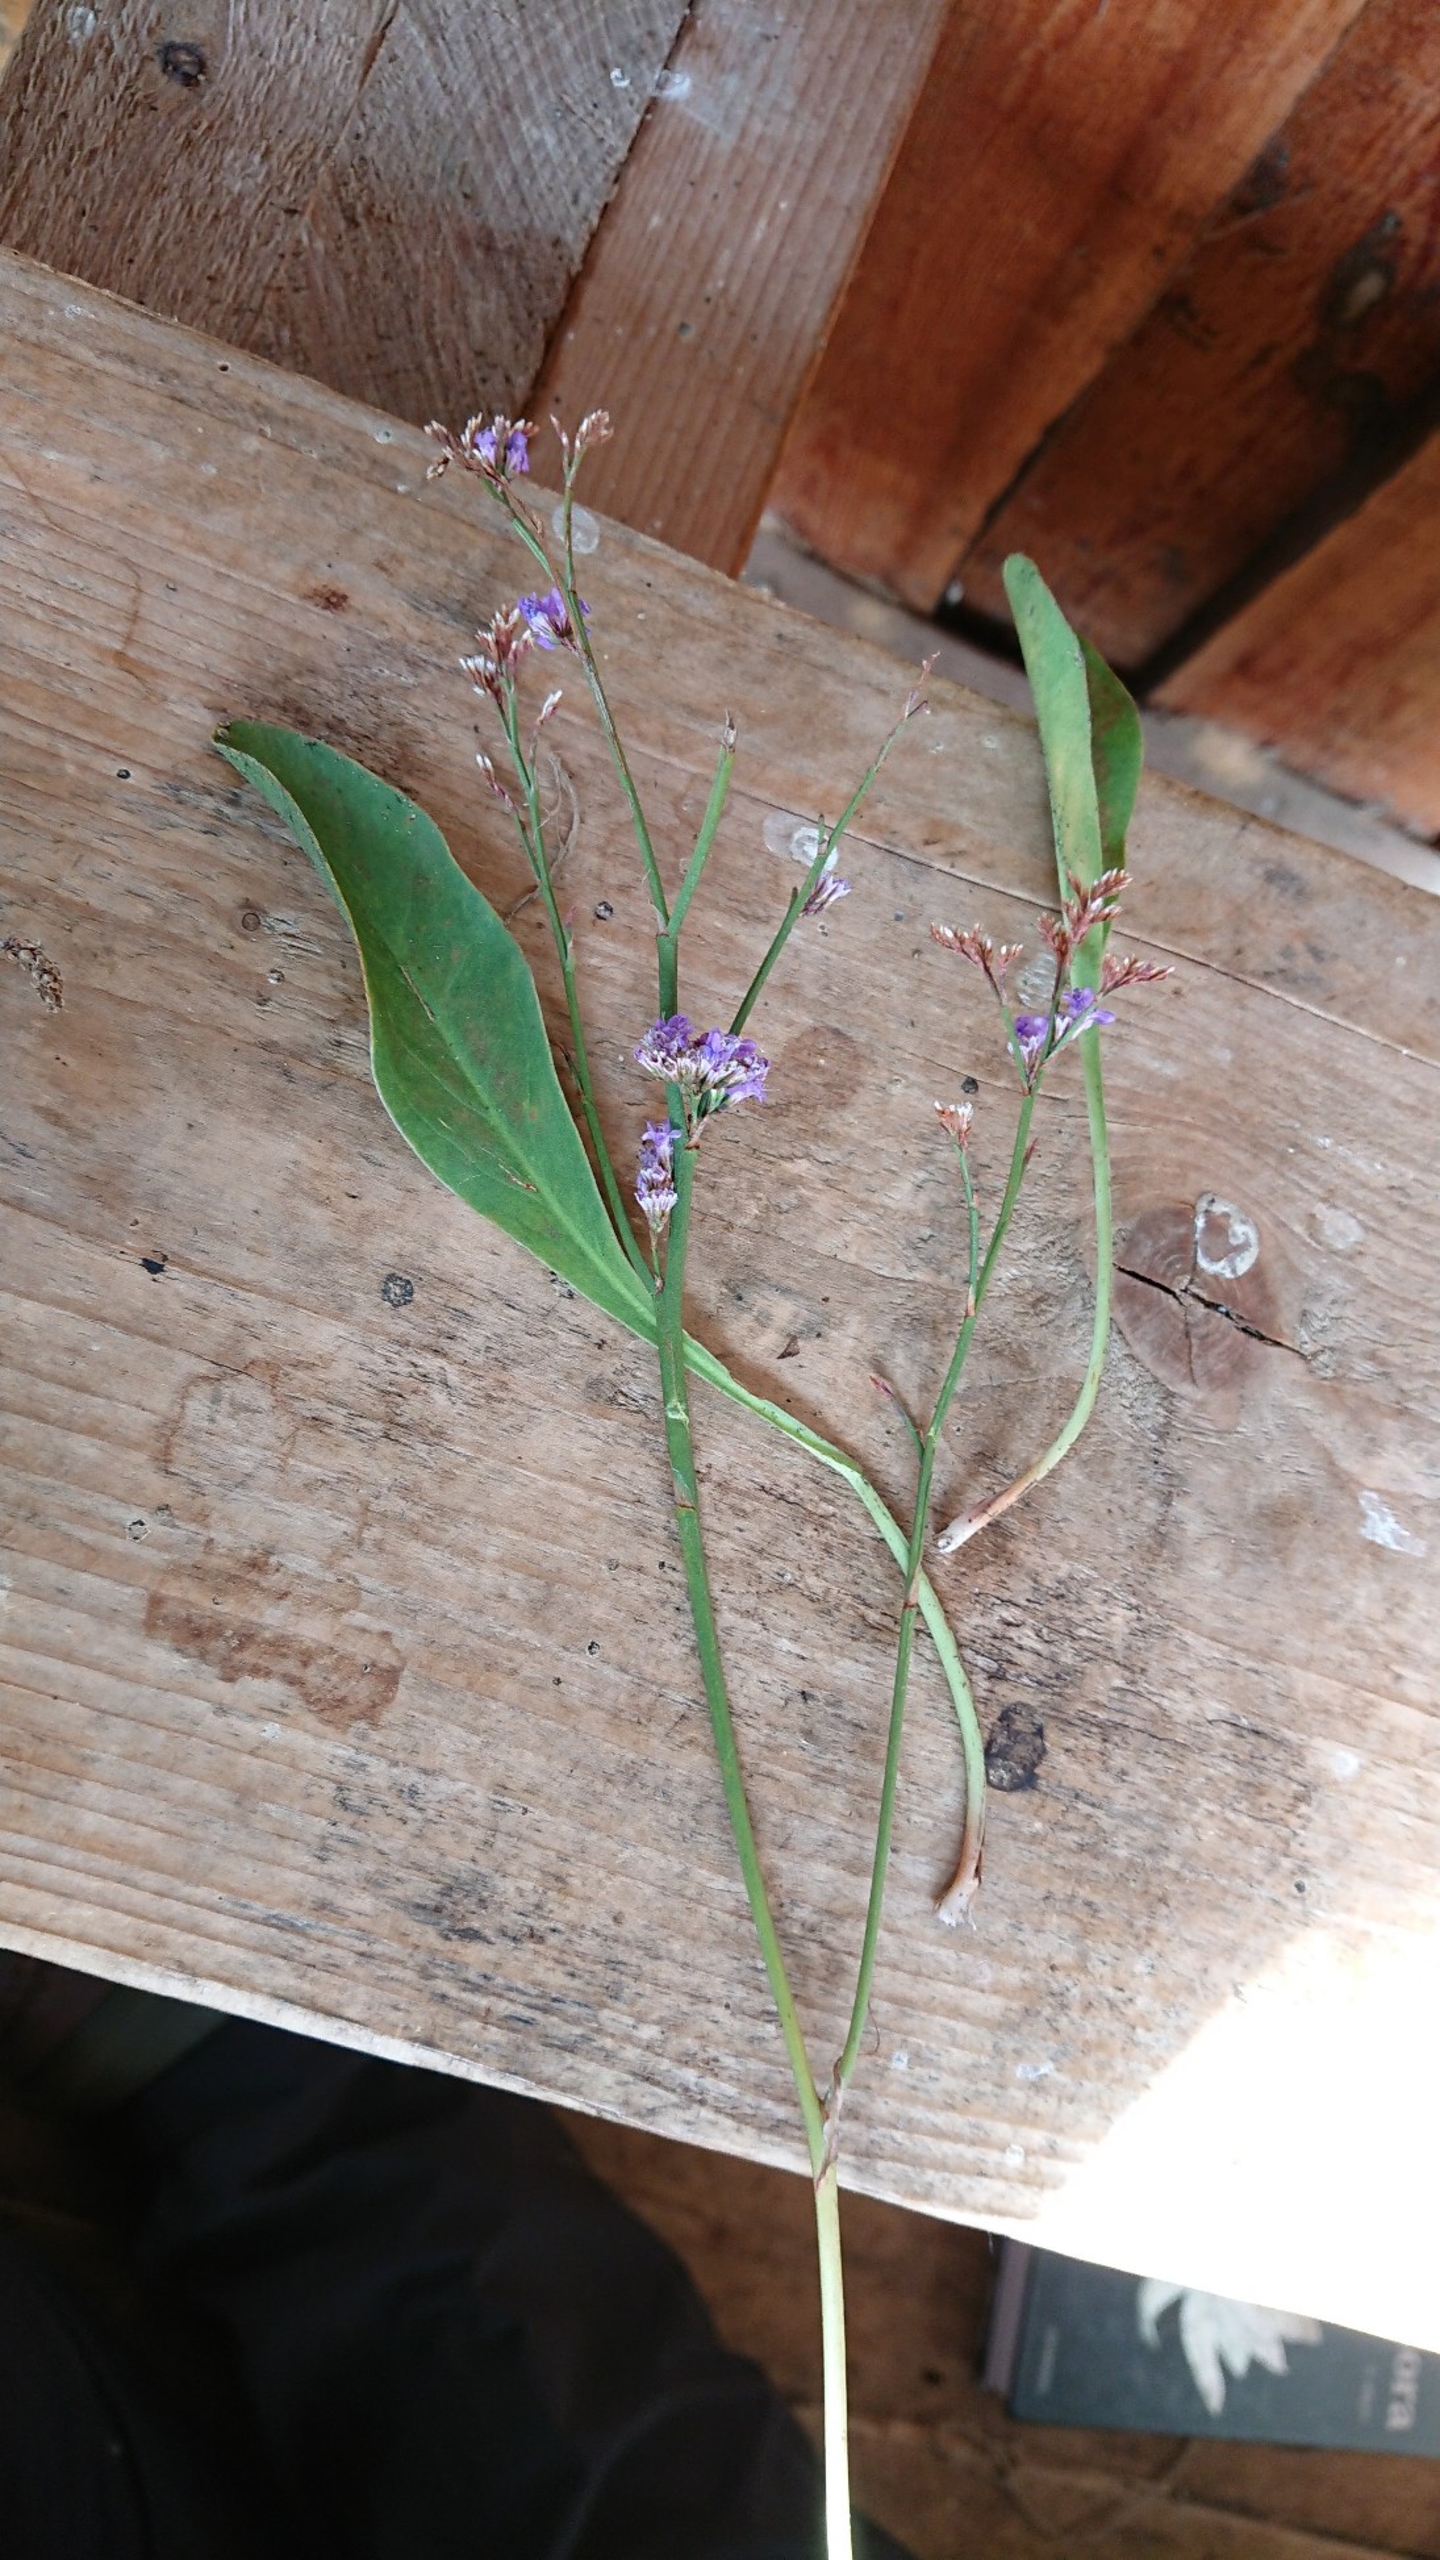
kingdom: Plantae
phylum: Tracheophyta
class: Magnoliopsida
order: Caryophyllales
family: Plumbaginaceae
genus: Limonium
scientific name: Limonium vulgare
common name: Tætblomstret hindebæger
